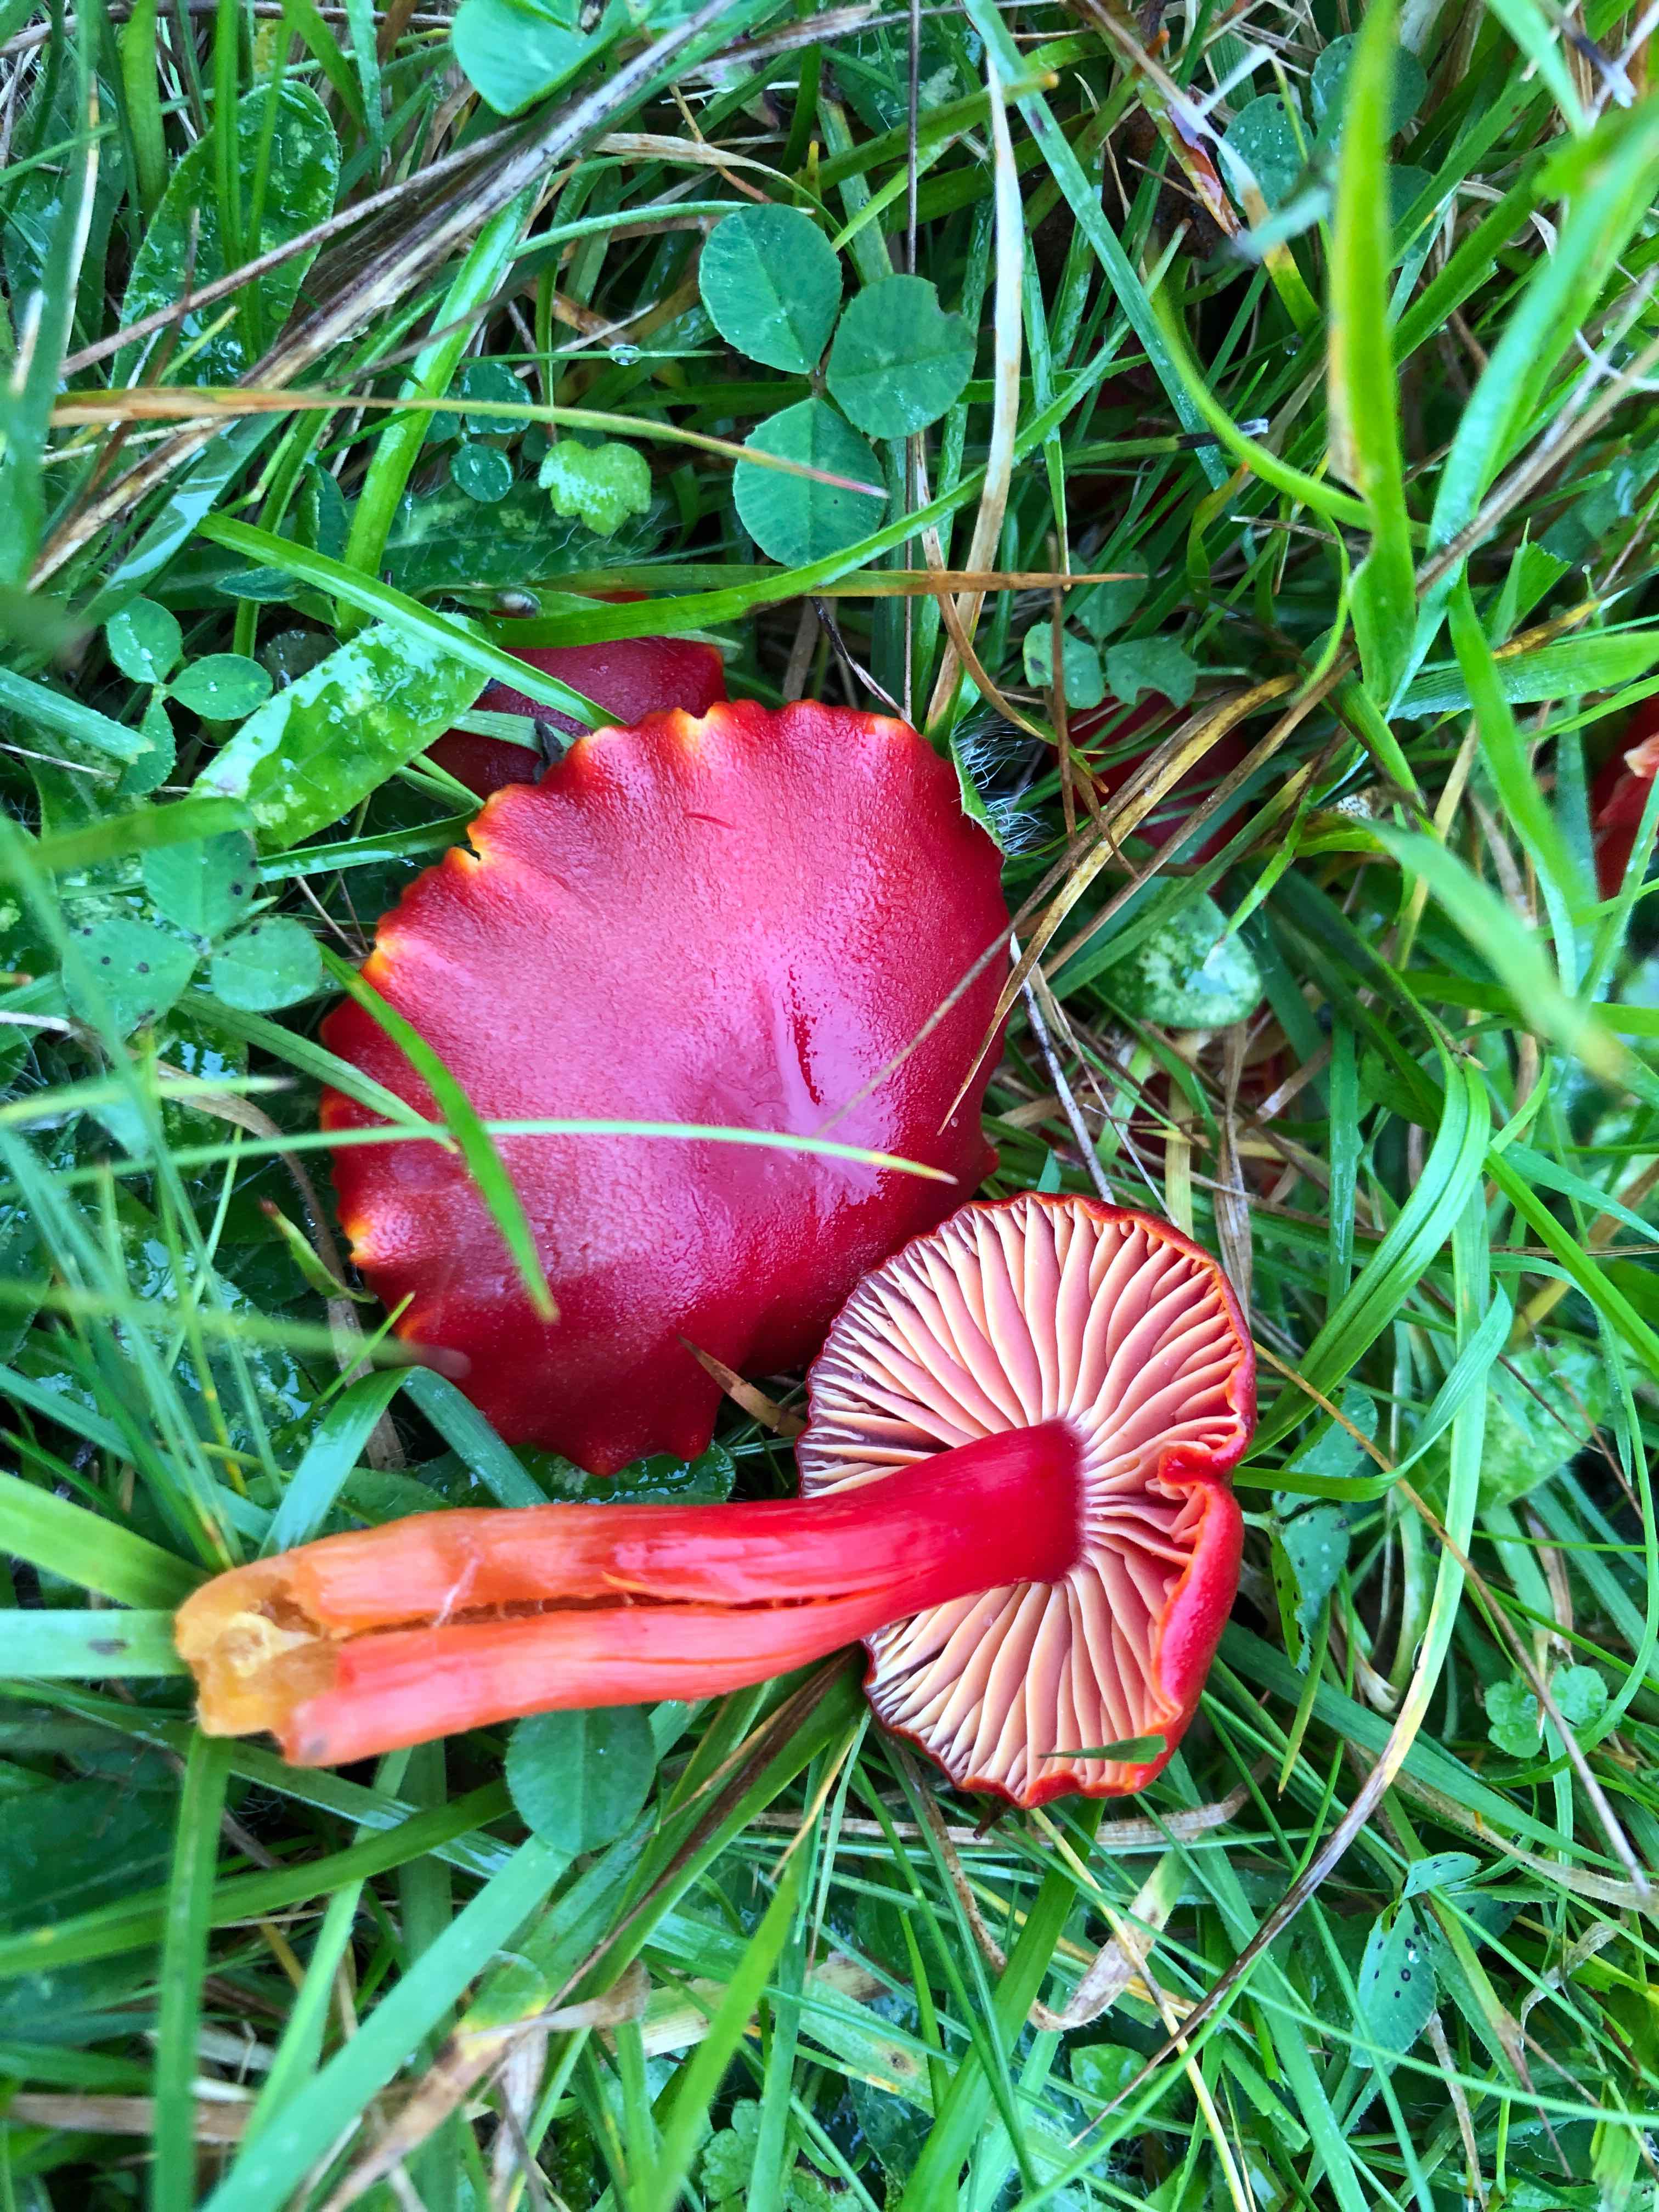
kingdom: Fungi
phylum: Basidiomycota
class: Agaricomycetes
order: Agaricales
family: Hygrophoraceae
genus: Hygrocybe
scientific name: Hygrocybe coccinea
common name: cinnober-vokshat
